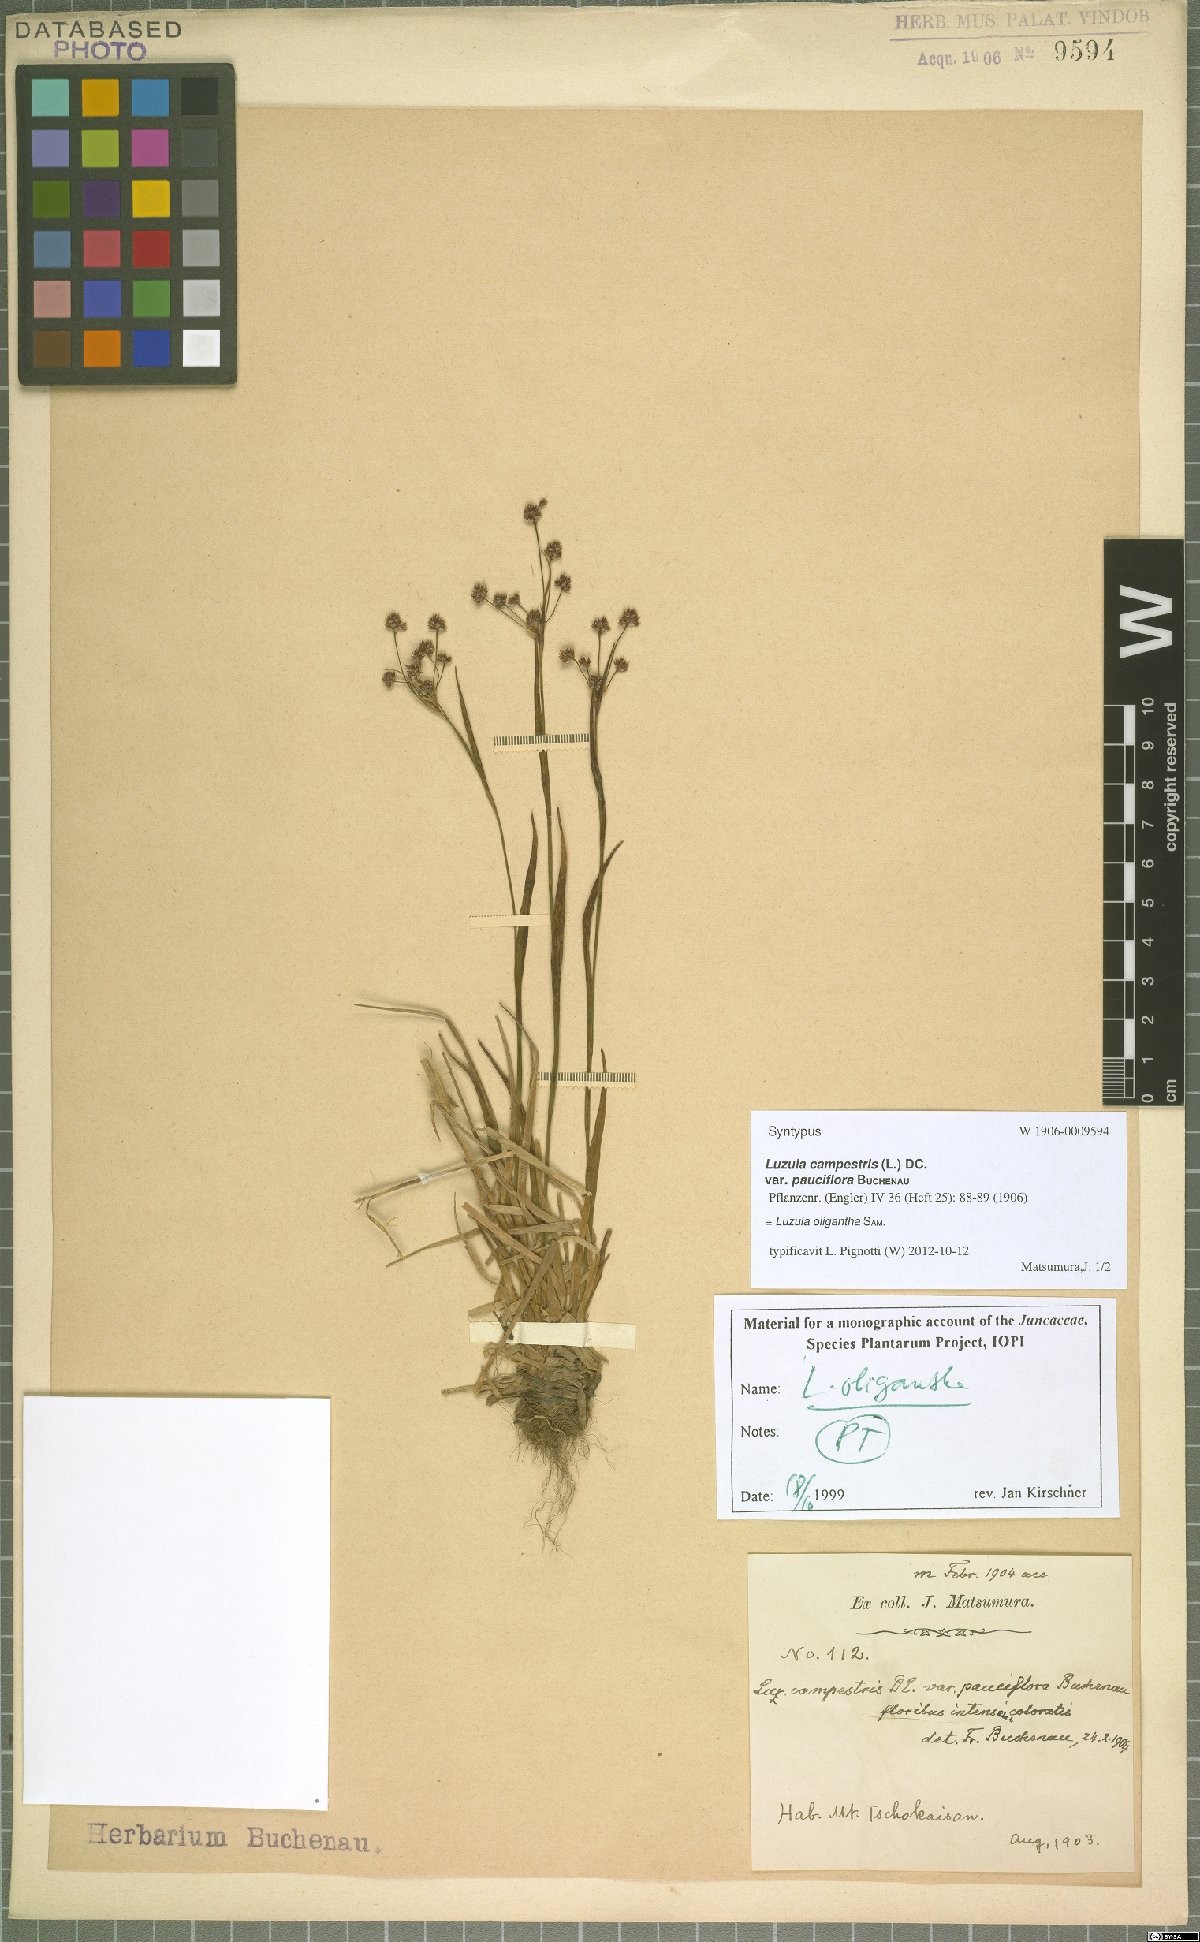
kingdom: Plantae
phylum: Tracheophyta
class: Liliopsida
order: Poales
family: Juncaceae
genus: Luzula
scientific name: Luzula oligantha
